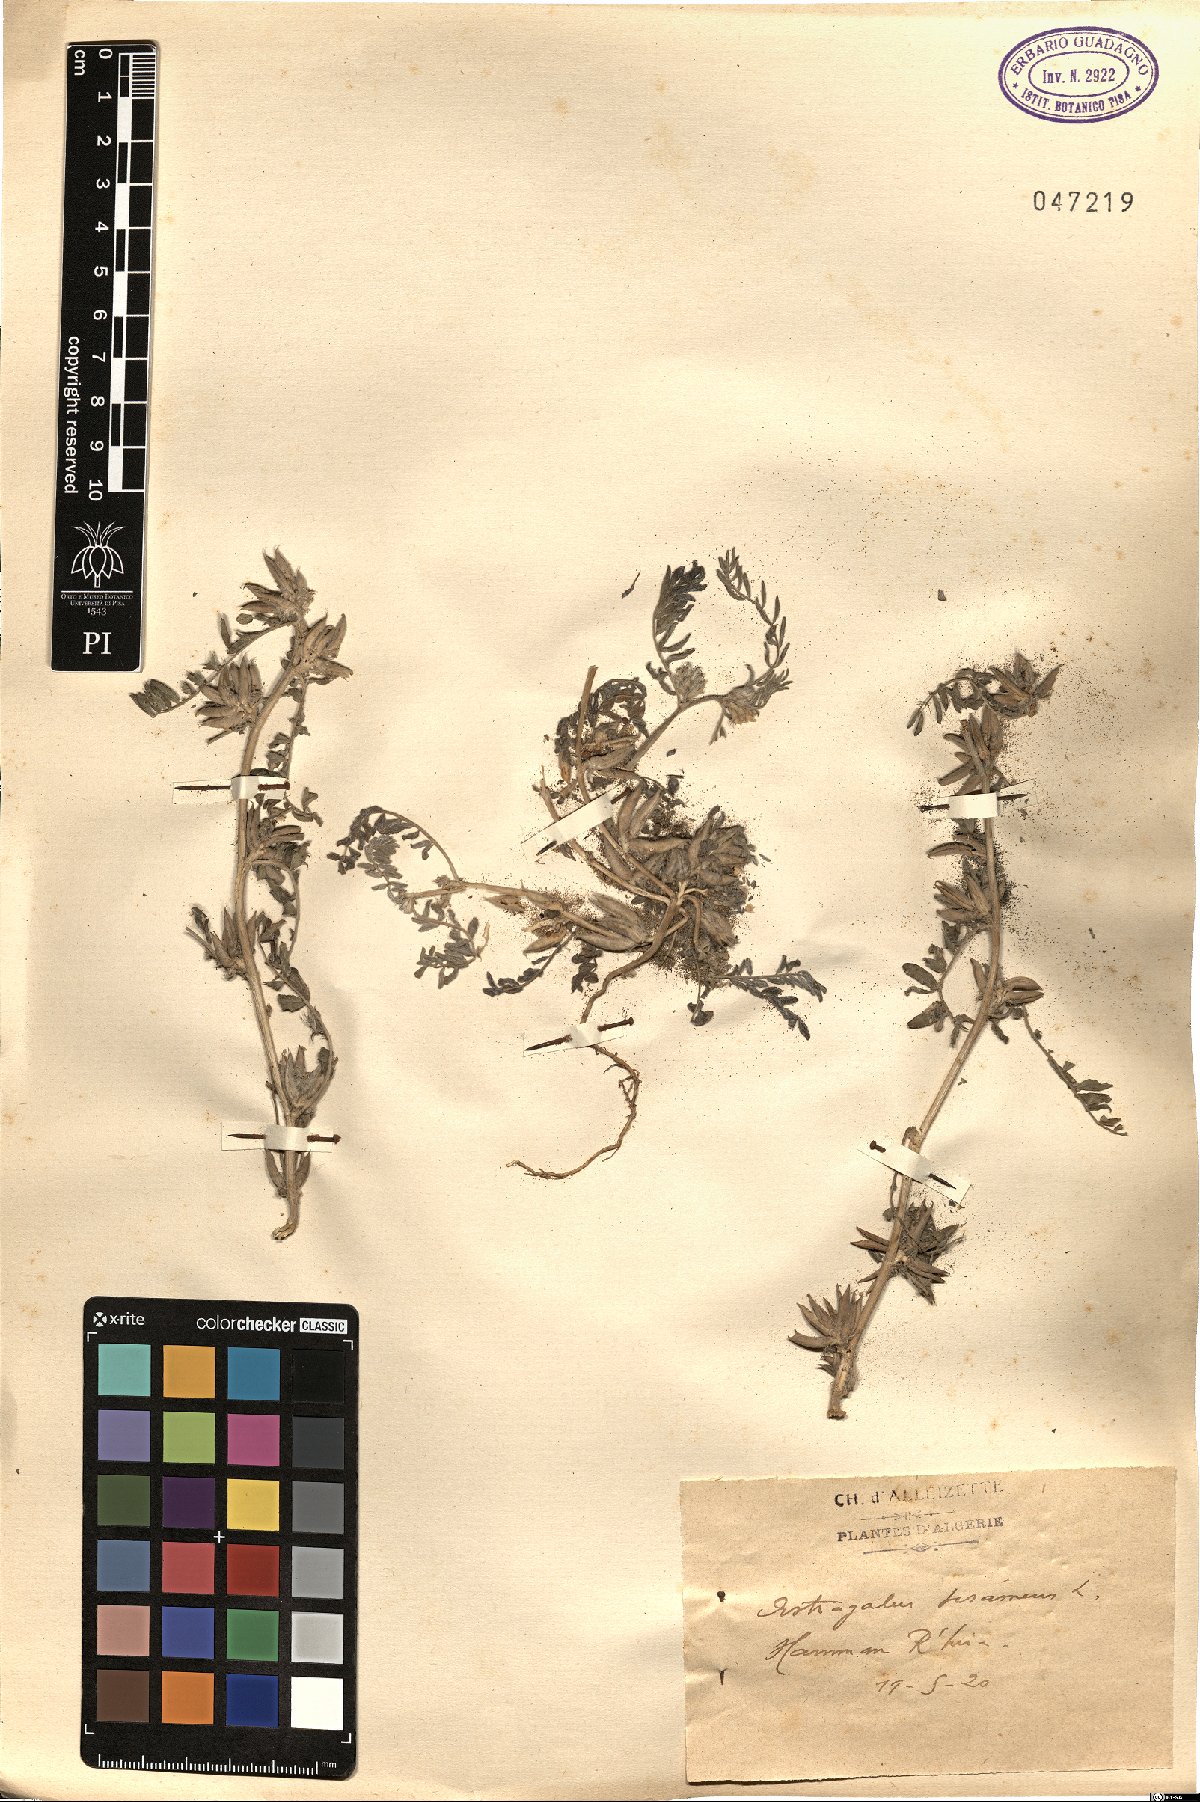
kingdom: Plantae
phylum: Tracheophyta
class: Magnoliopsida
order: Fabales
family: Fabaceae
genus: Astragalus
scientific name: Astragalus sesameus
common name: Purple milk-vetch
